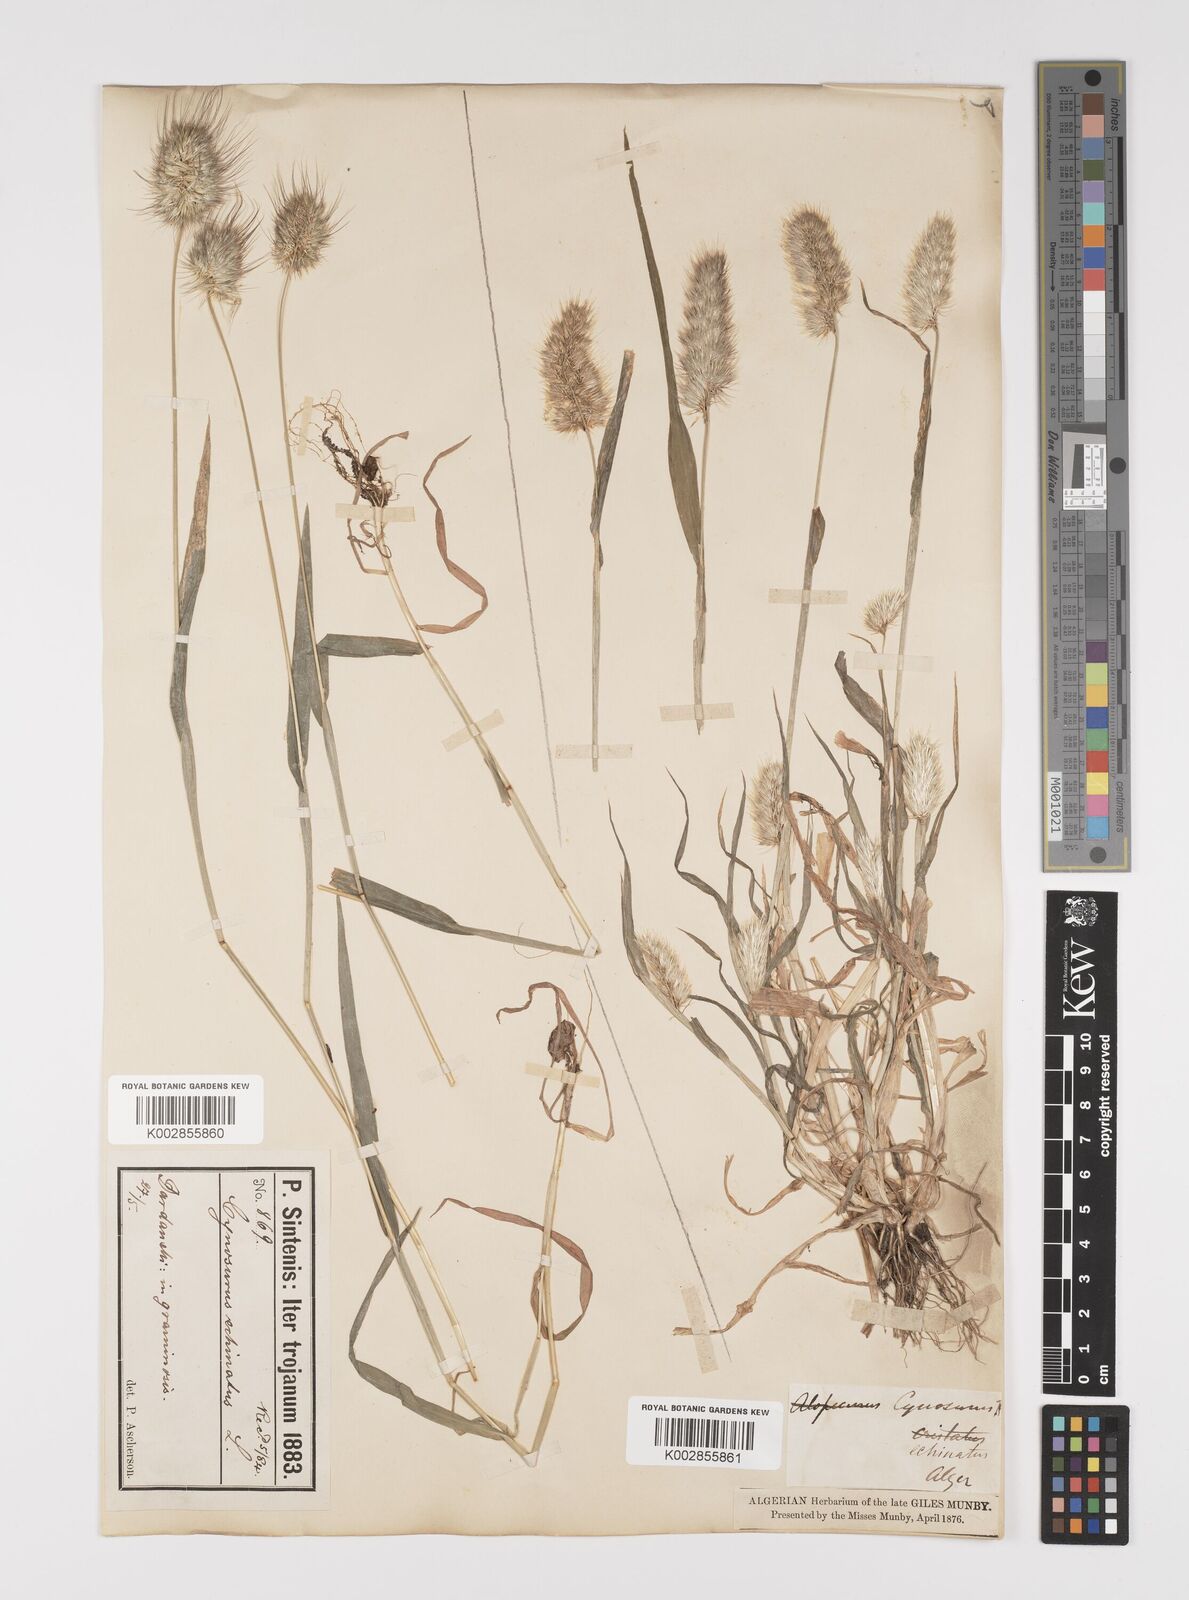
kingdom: Plantae
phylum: Tracheophyta
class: Liliopsida
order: Poales
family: Poaceae
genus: Cynosurus
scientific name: Cynosurus echinatus
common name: Rough dog's-tail
